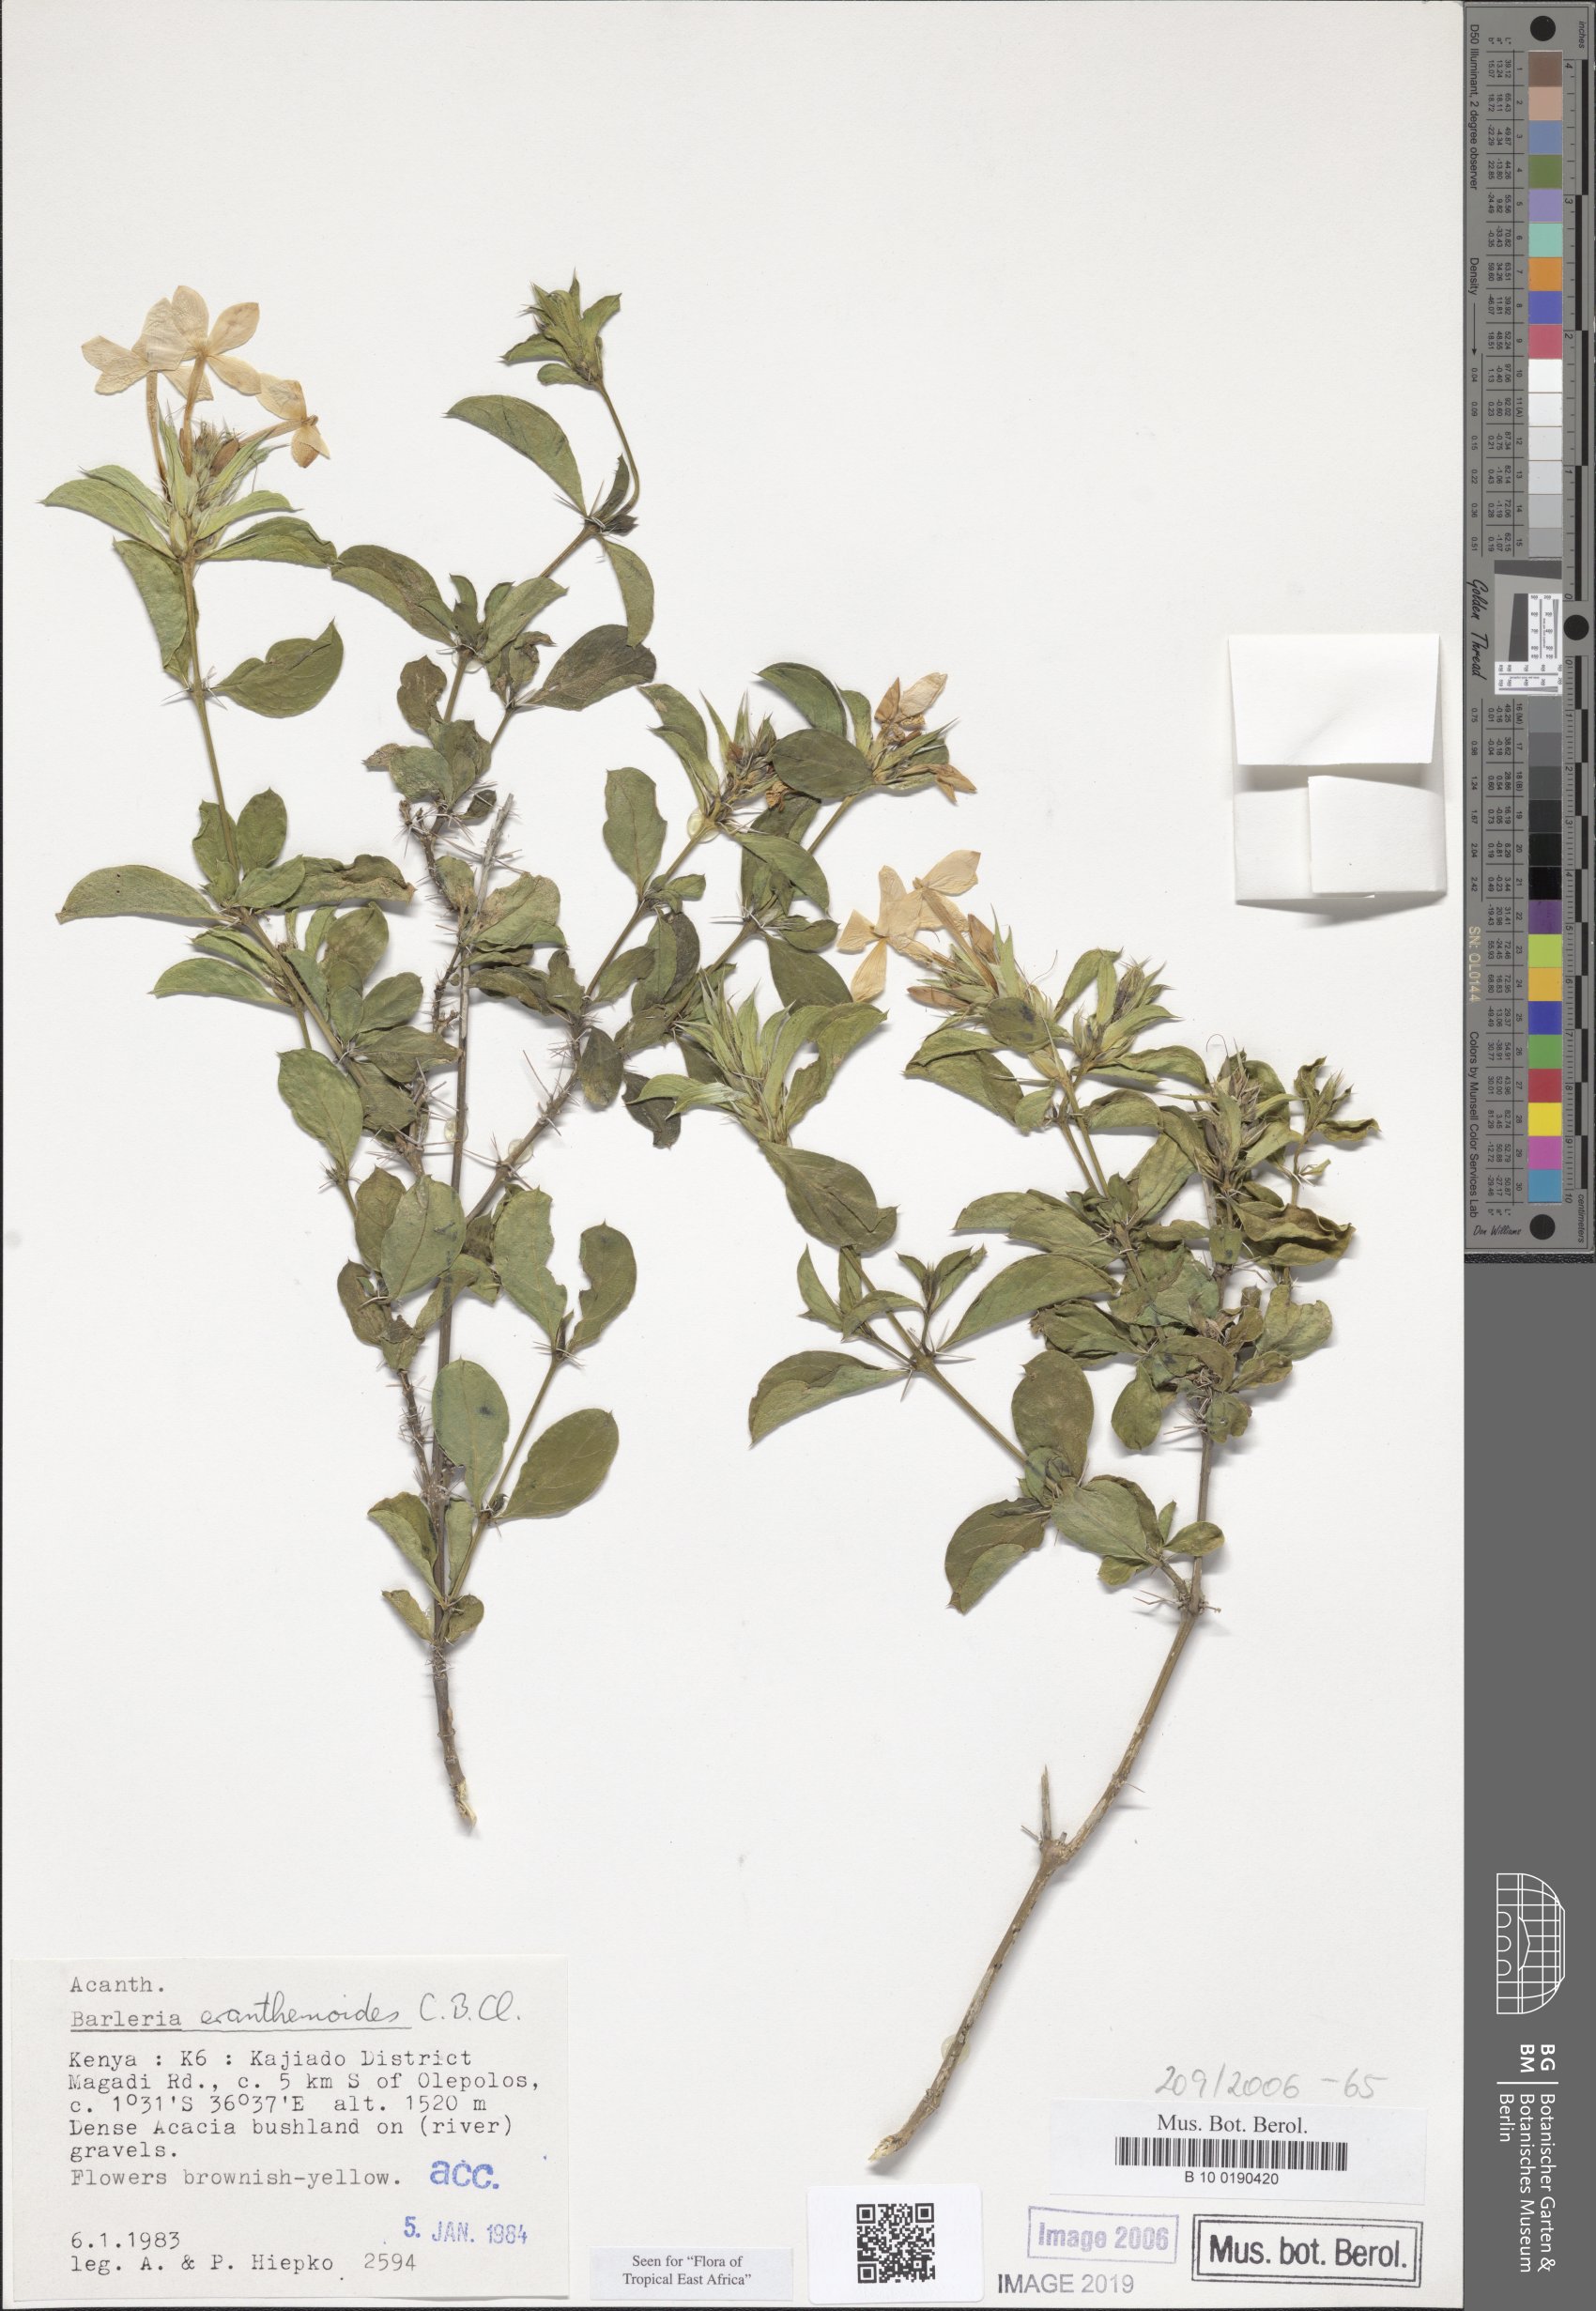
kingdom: Plantae
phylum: Tracheophyta
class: Magnoliopsida
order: Lamiales
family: Acanthaceae
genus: Barleria
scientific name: Barleria eranthemoides
